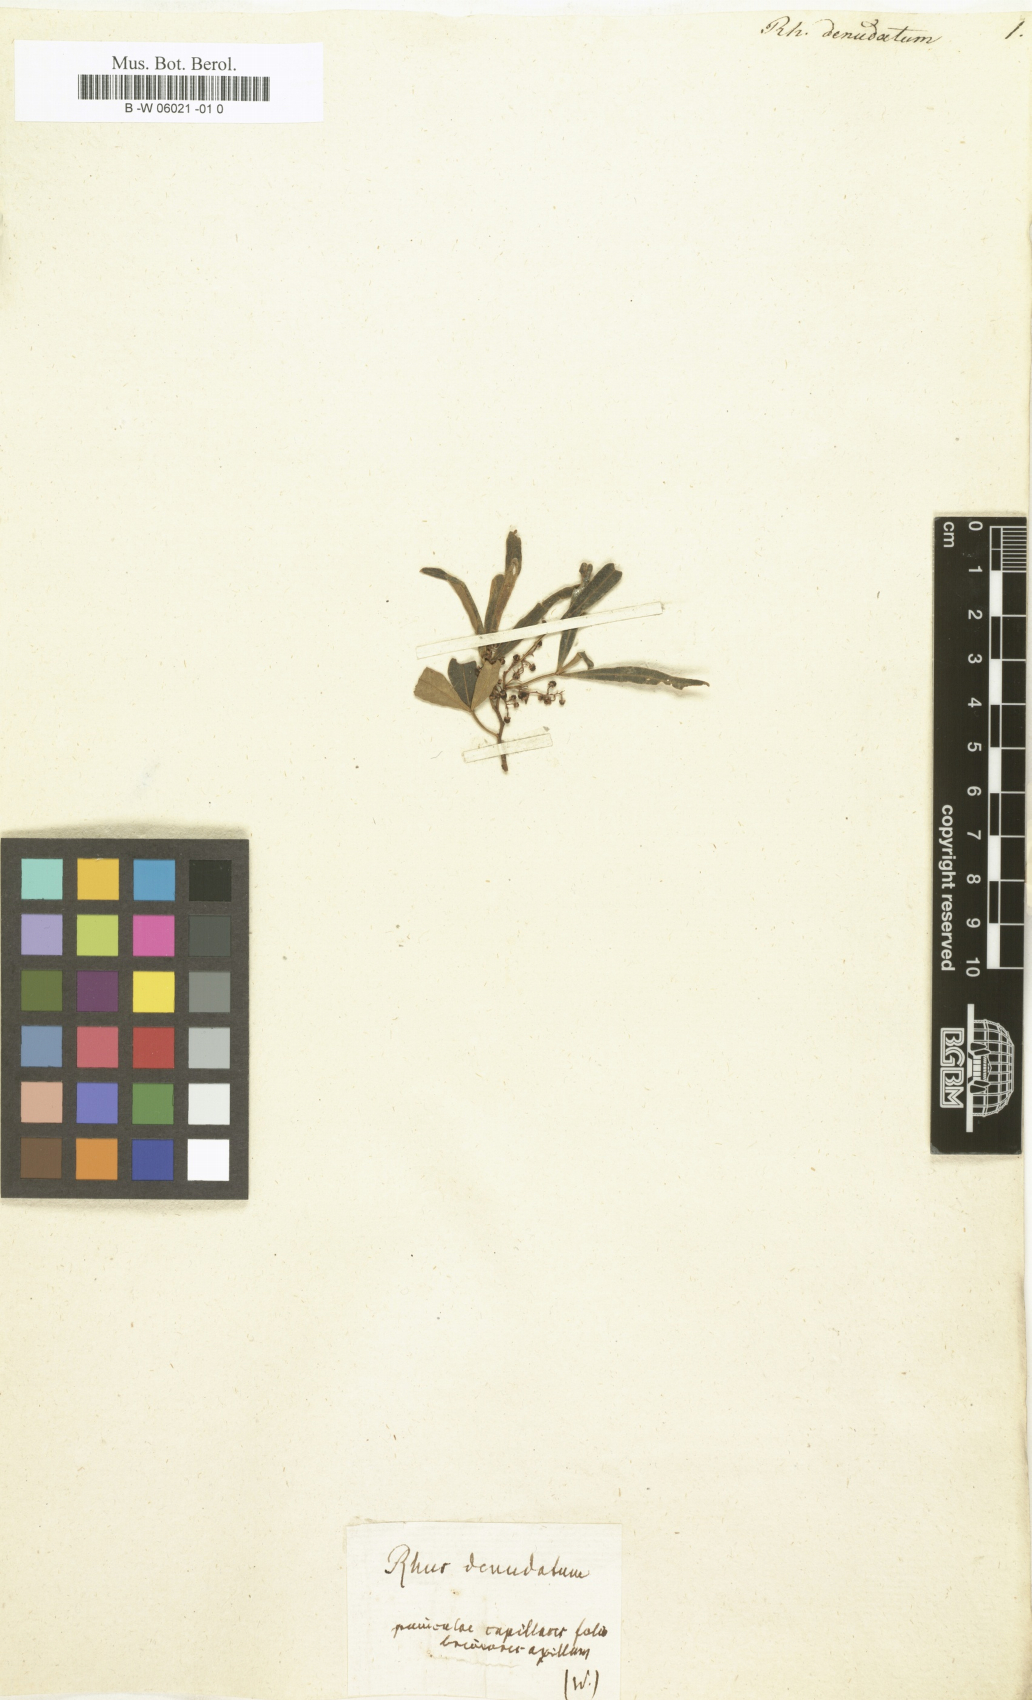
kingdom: Plantae
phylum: Tracheophyta
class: Magnoliopsida
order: Sapindales
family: Anacardiaceae
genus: Searsia
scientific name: Searsia
